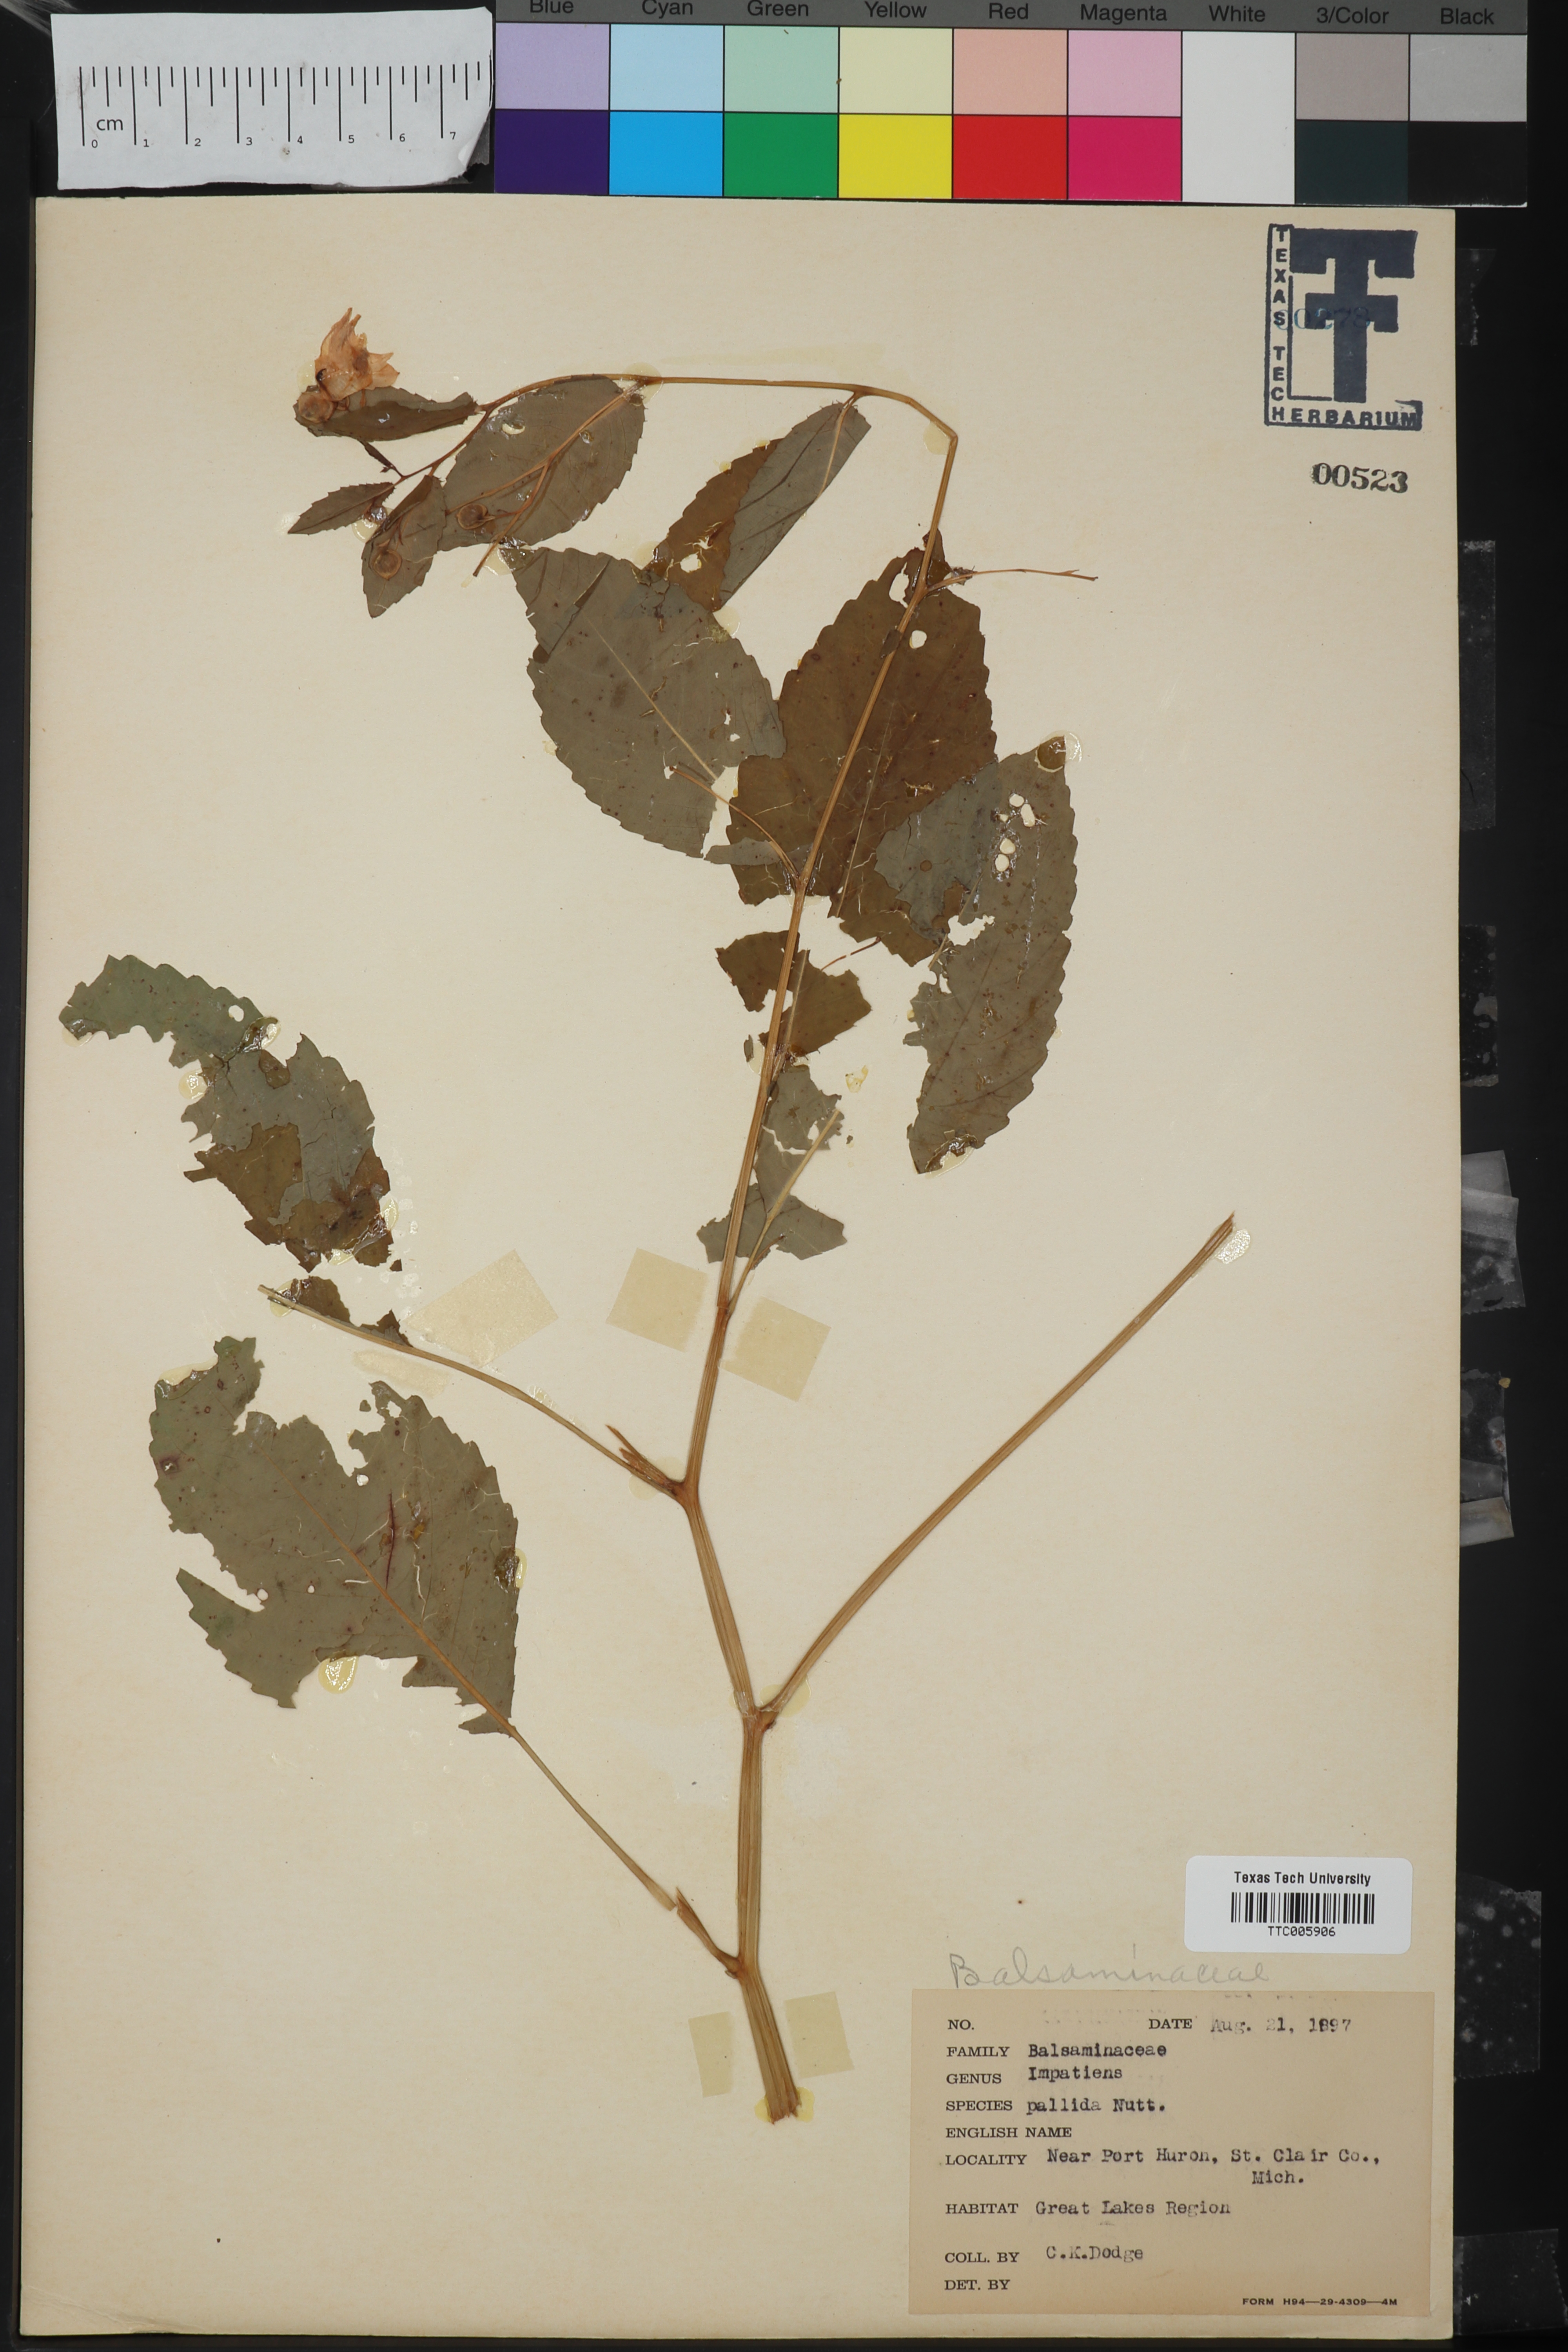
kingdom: Plantae
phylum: Tracheophyta
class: Magnoliopsida
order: Ericales
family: Balsaminaceae
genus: Impatiens
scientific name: Impatiens pallida
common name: Pale snapweed
